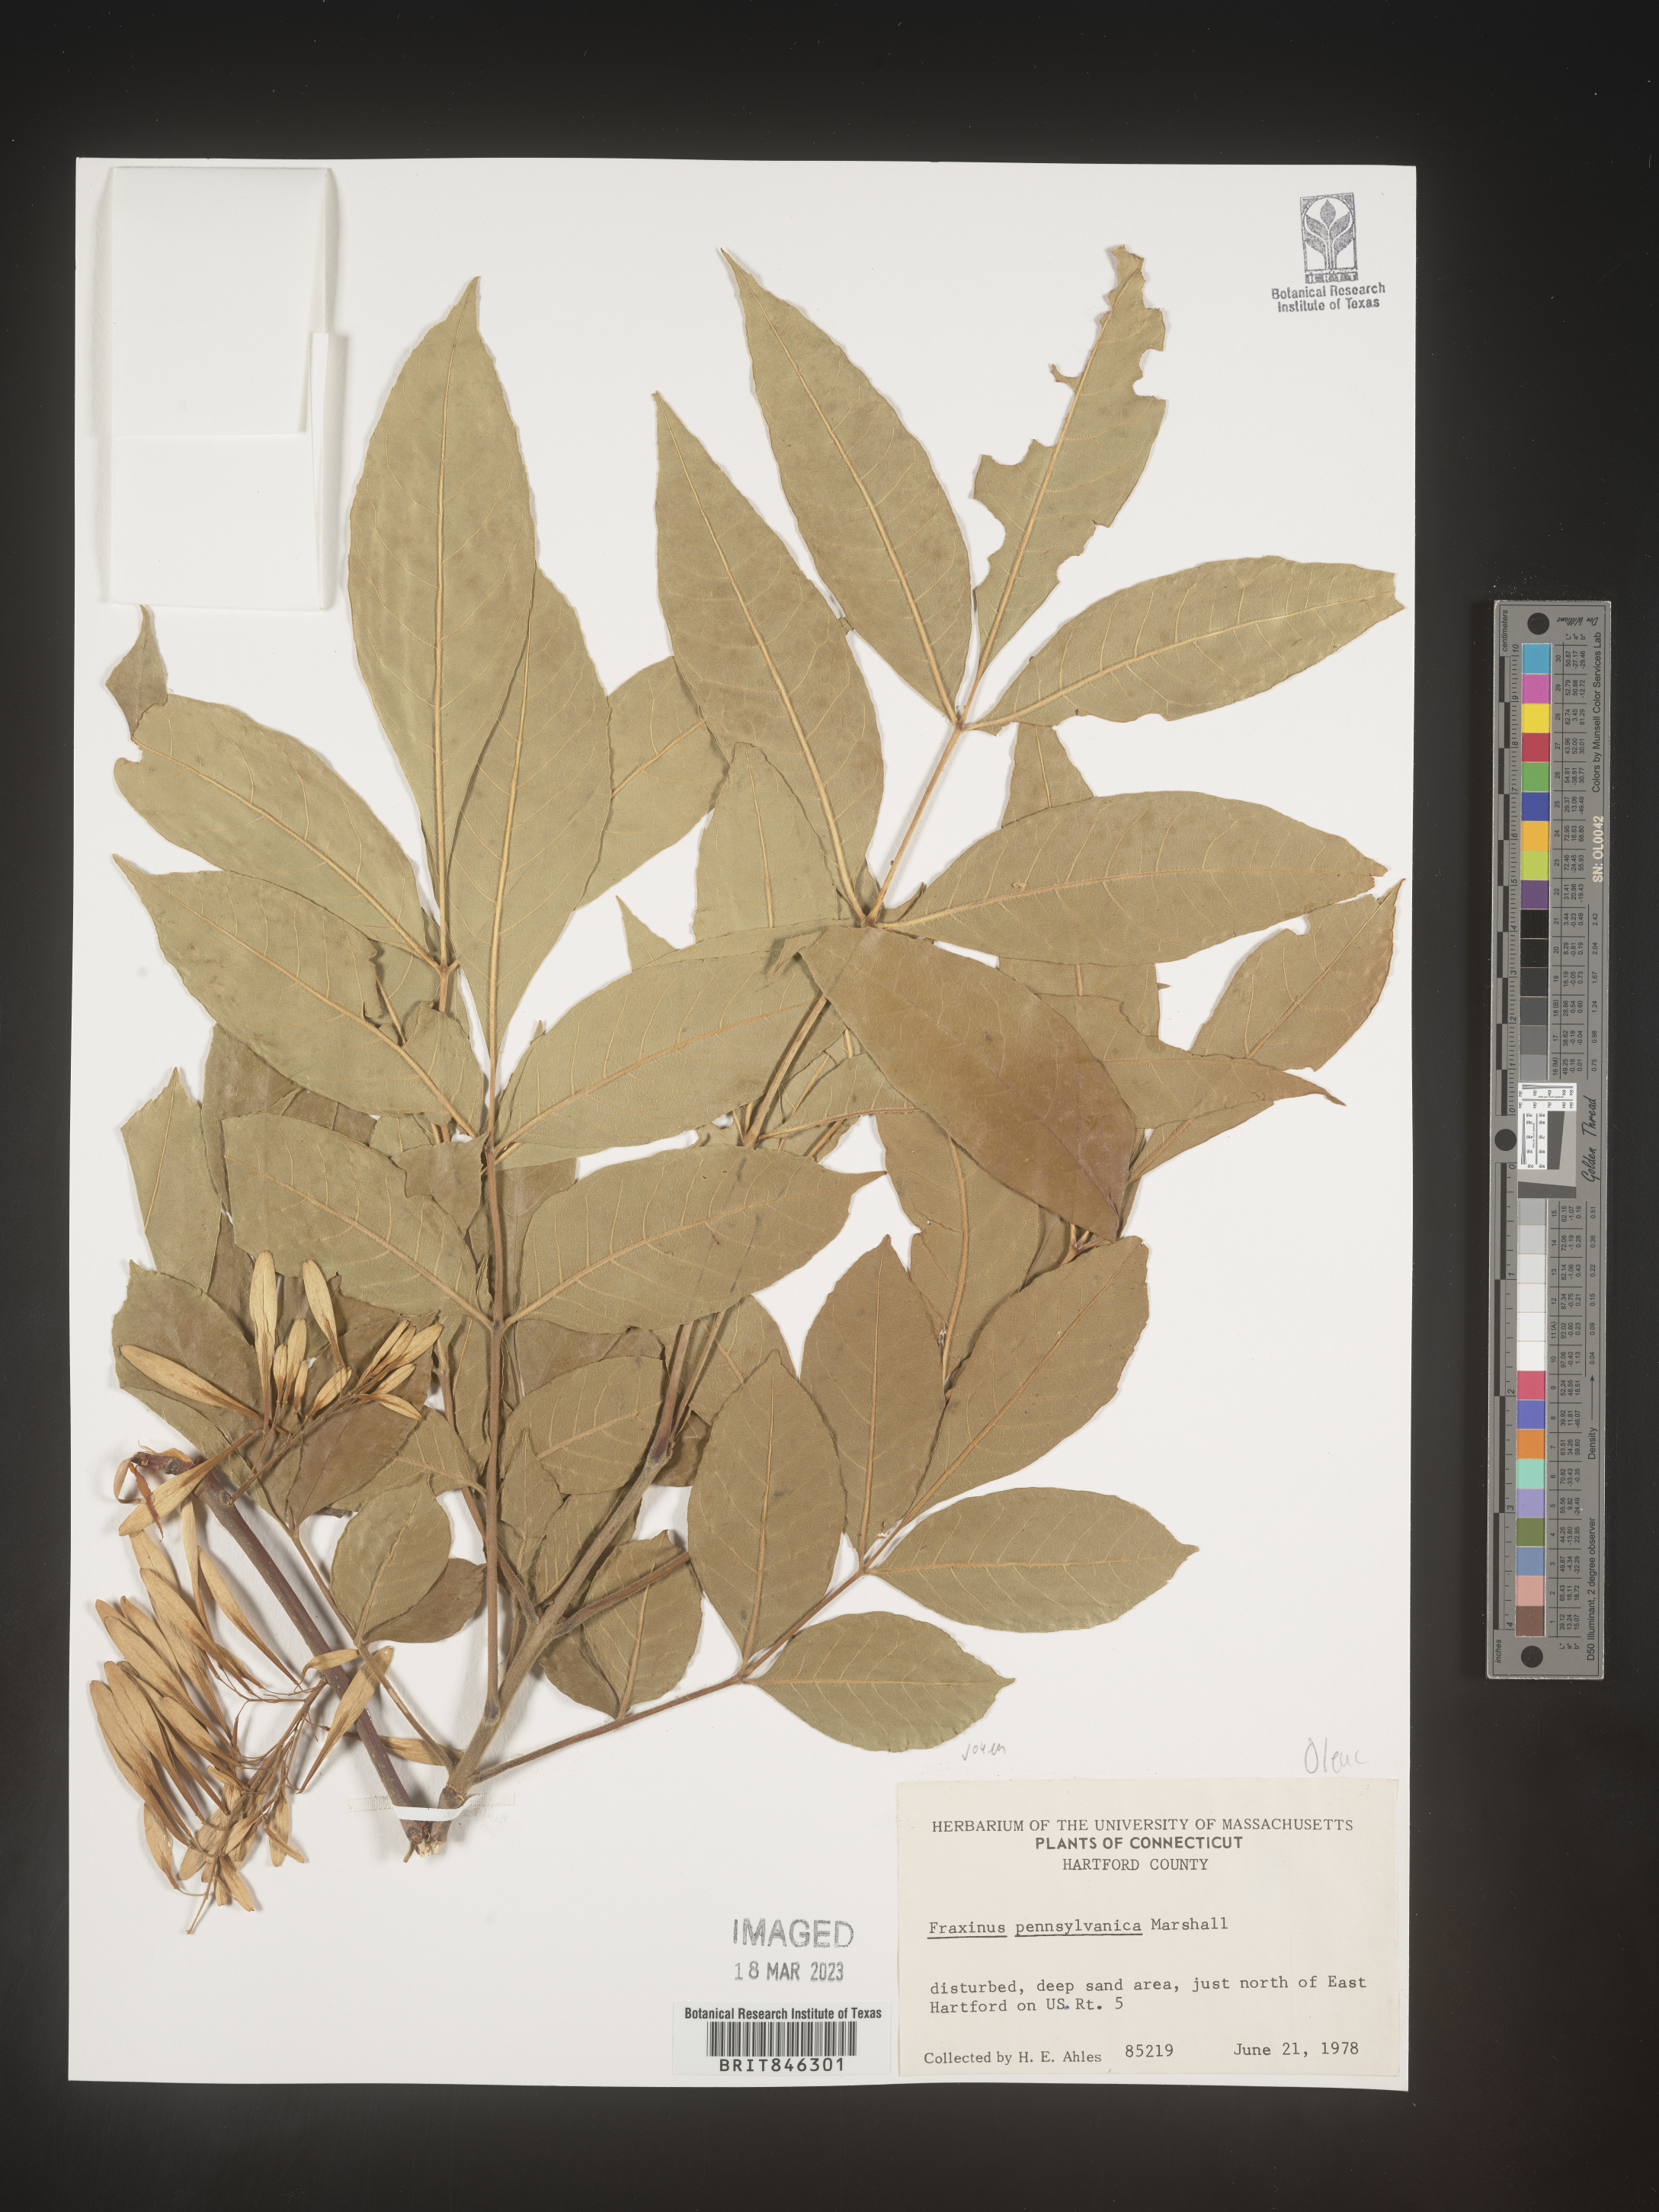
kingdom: Plantae
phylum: Tracheophyta
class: Magnoliopsida
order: Lamiales
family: Oleaceae
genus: Fraxinus
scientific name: Fraxinus pennsylvanica
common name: Green ash
